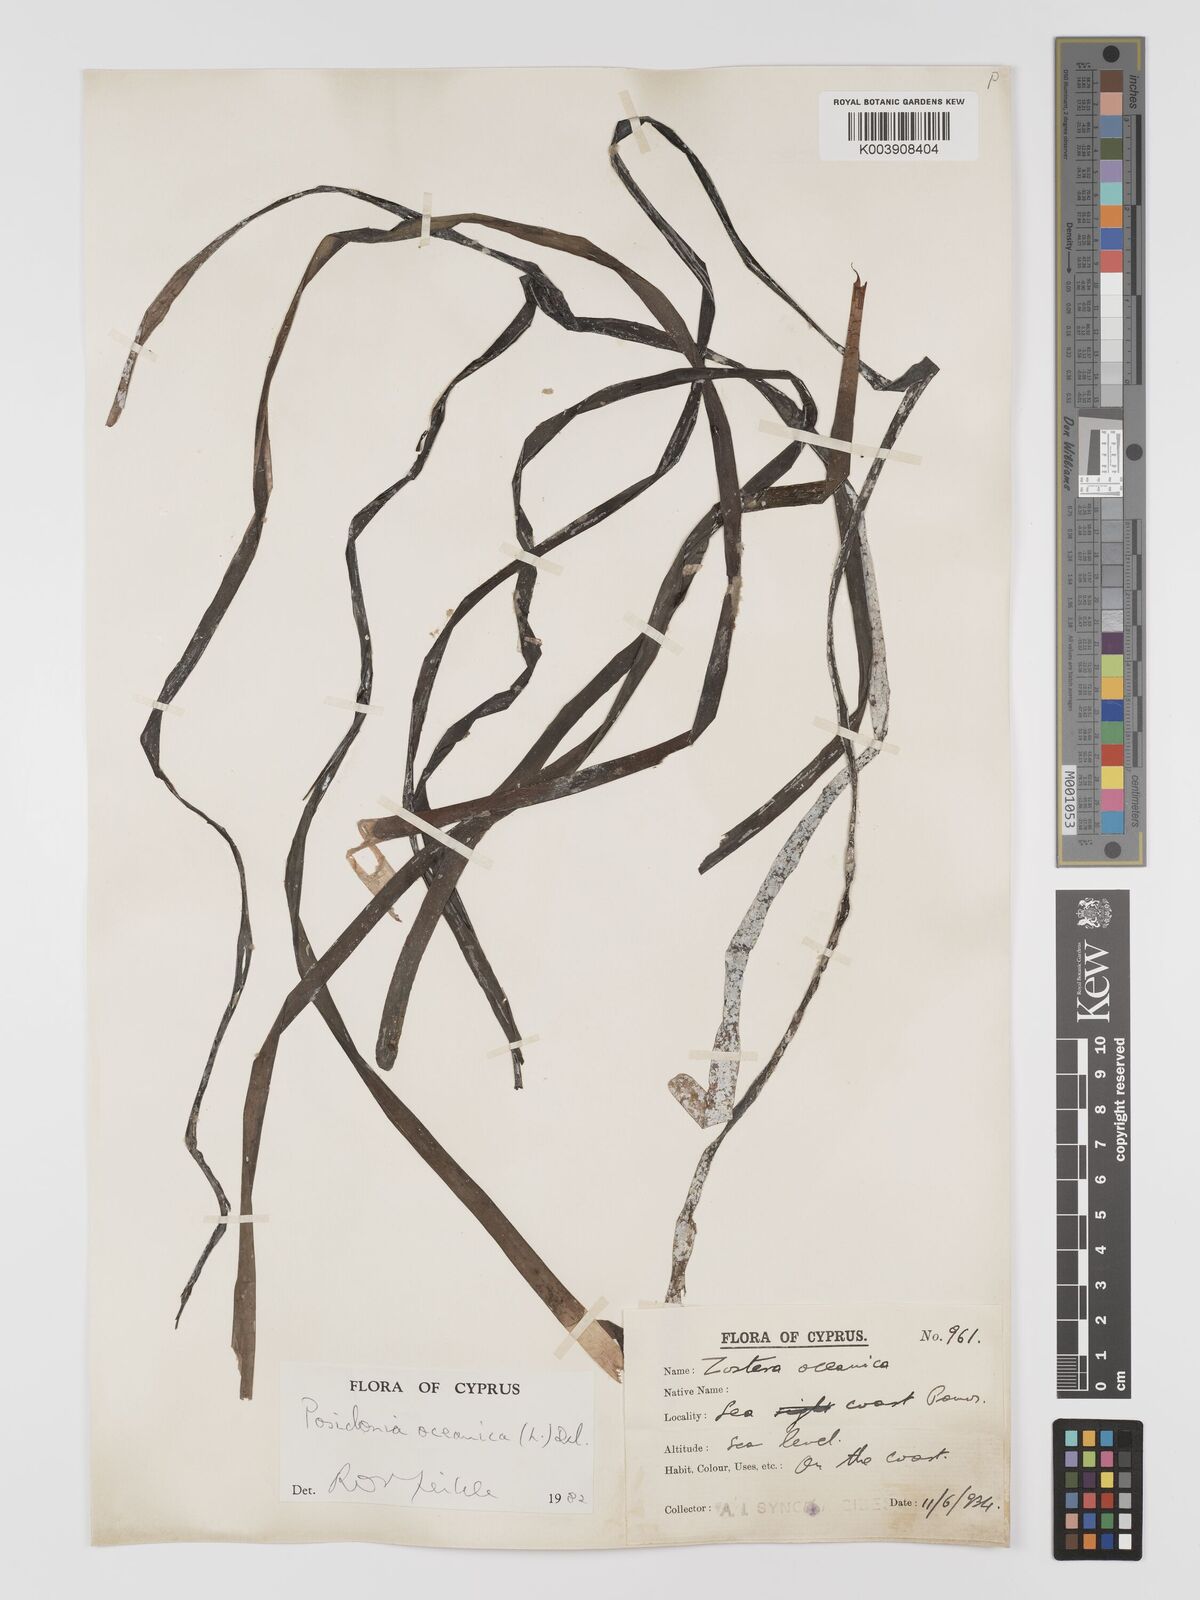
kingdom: Plantae
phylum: Tracheophyta
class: Liliopsida
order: Alismatales
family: Posidoniaceae
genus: Posidonia
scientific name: Posidonia oceanica
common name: Mediterranean tapeweed
